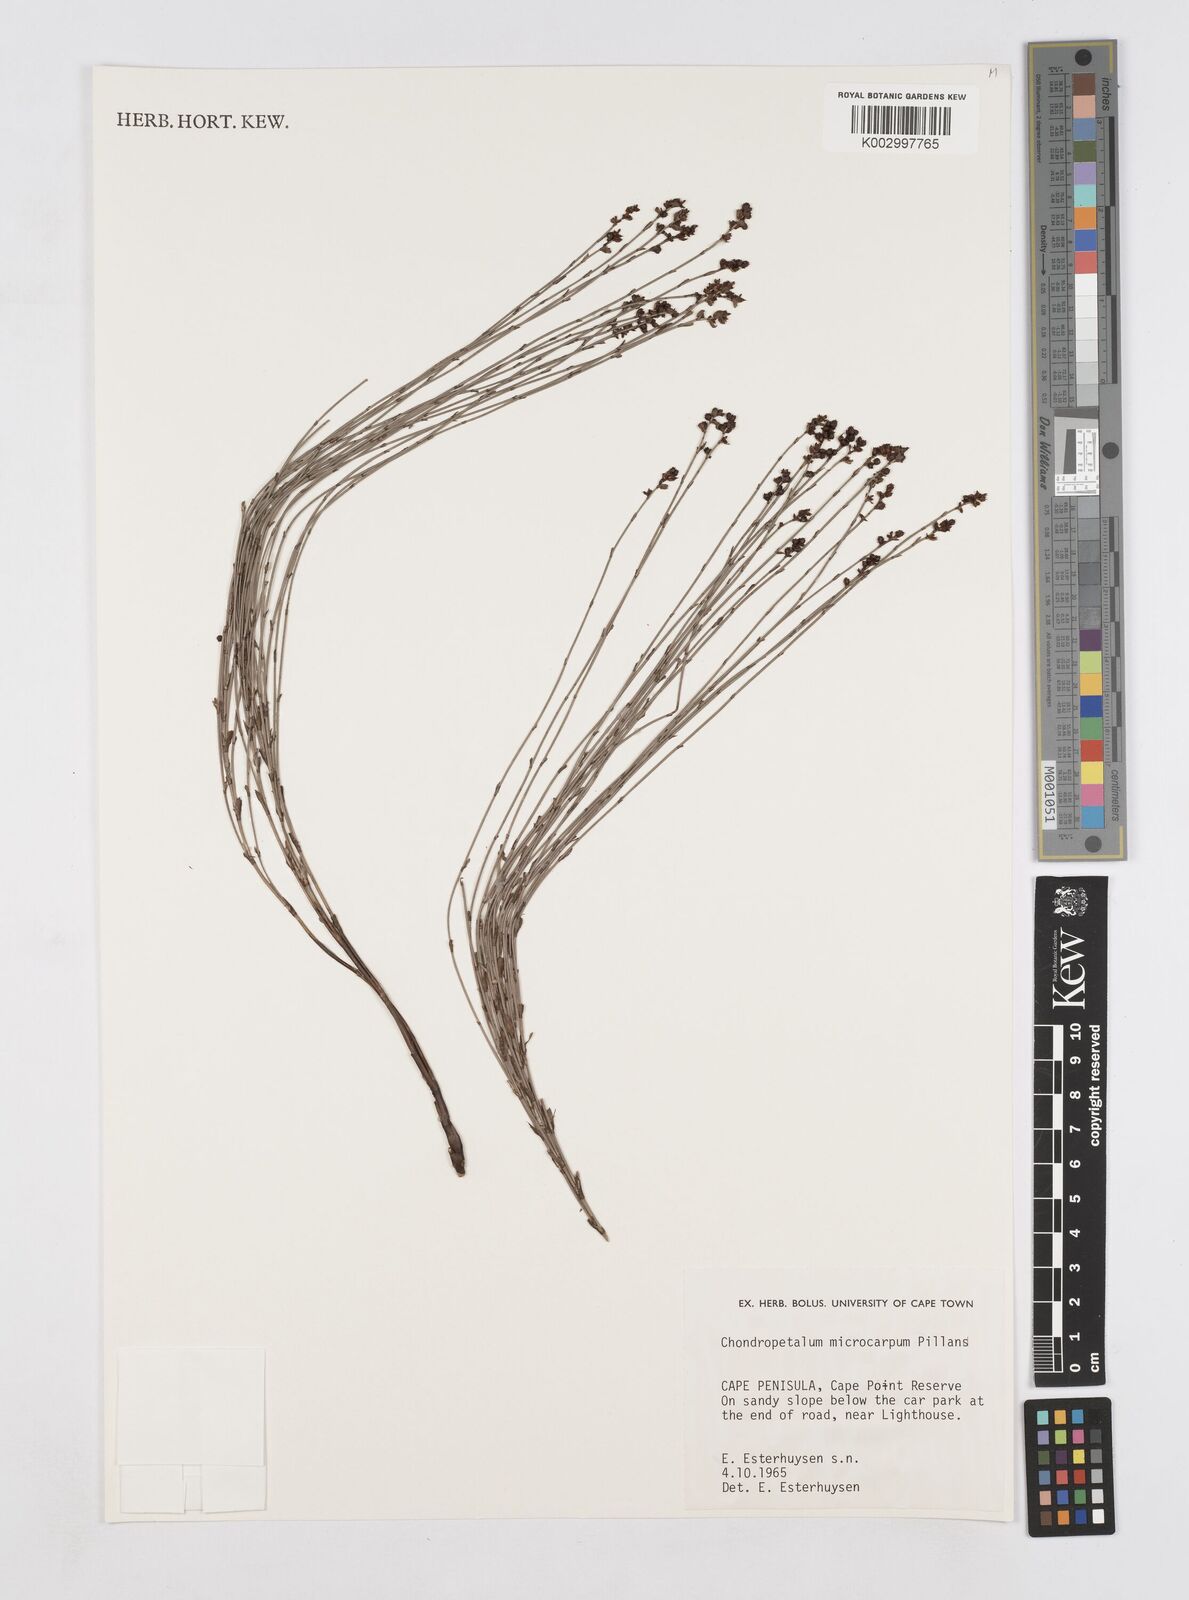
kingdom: Plantae
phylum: Tracheophyta
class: Liliopsida
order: Poales
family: Restionaceae
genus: Elegia
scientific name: Elegia juncea
